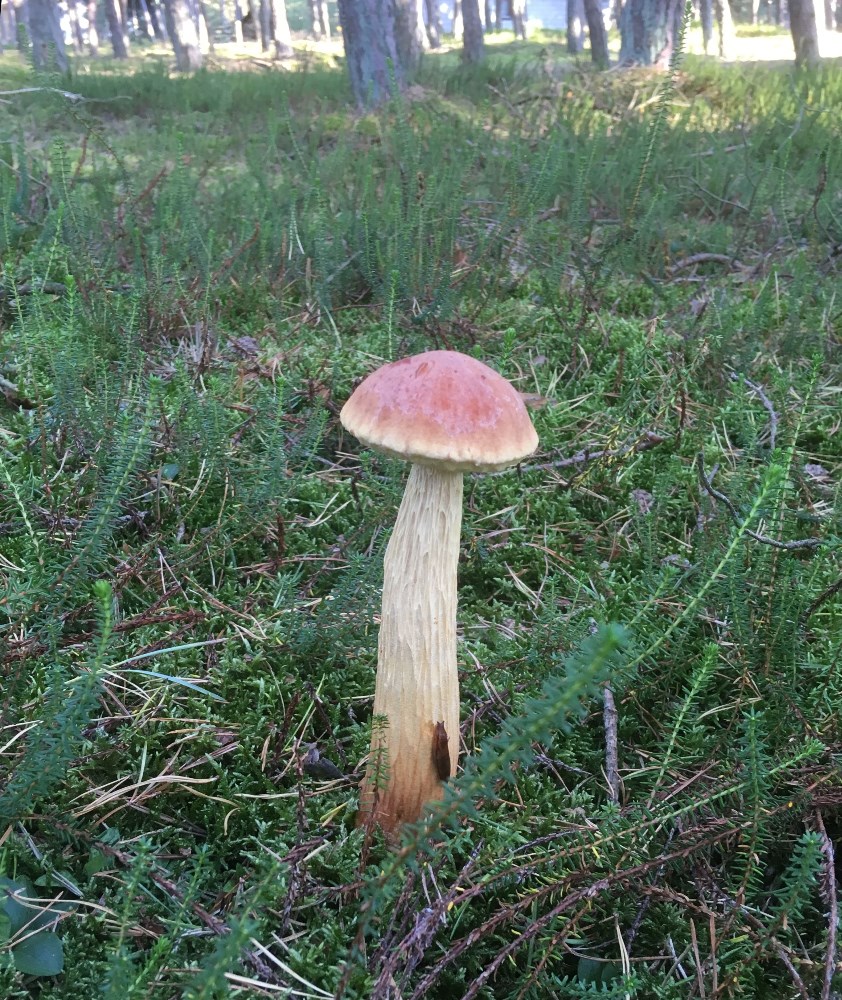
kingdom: Fungi
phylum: Basidiomycota
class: Agaricomycetes
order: Boletales
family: Boletaceae
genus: Aureoboletus
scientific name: Aureoboletus projectellus
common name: ribbestokket rørhat
